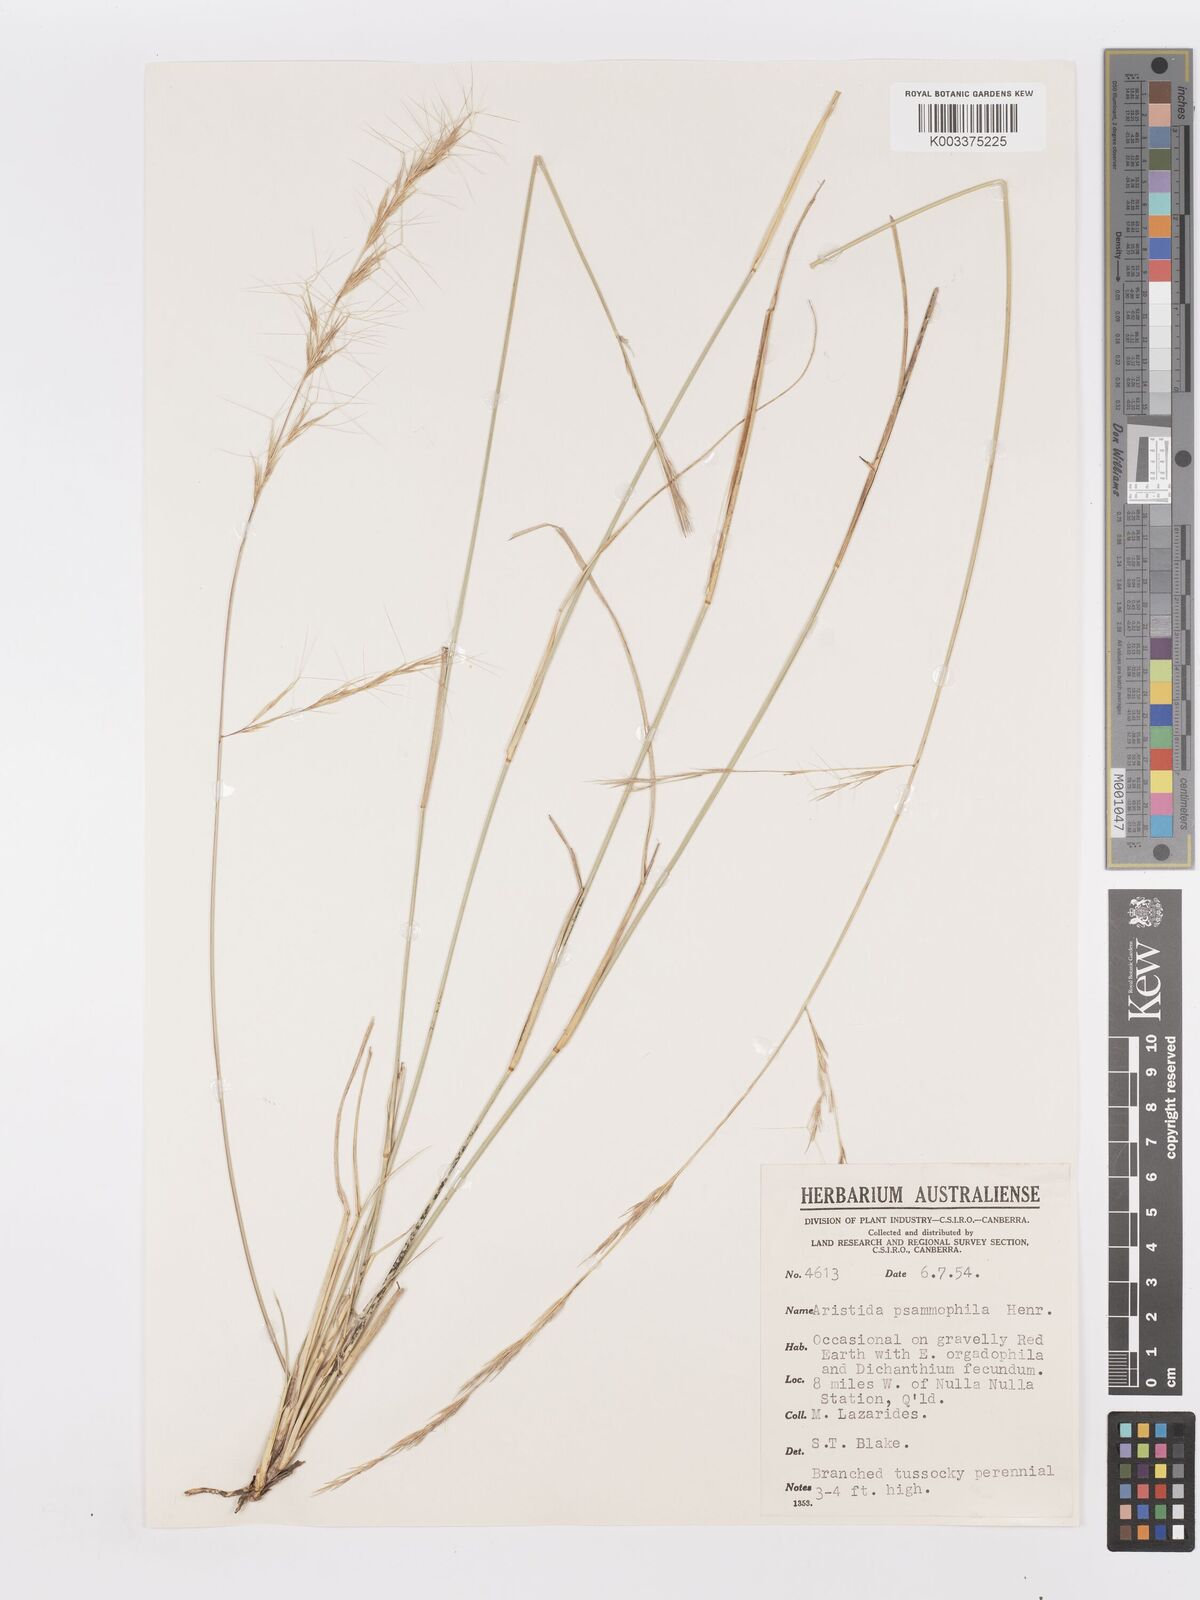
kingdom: Plantae
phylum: Tracheophyta
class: Liliopsida
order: Poales
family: Poaceae
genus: Aristida
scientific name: Aristida psammophila
